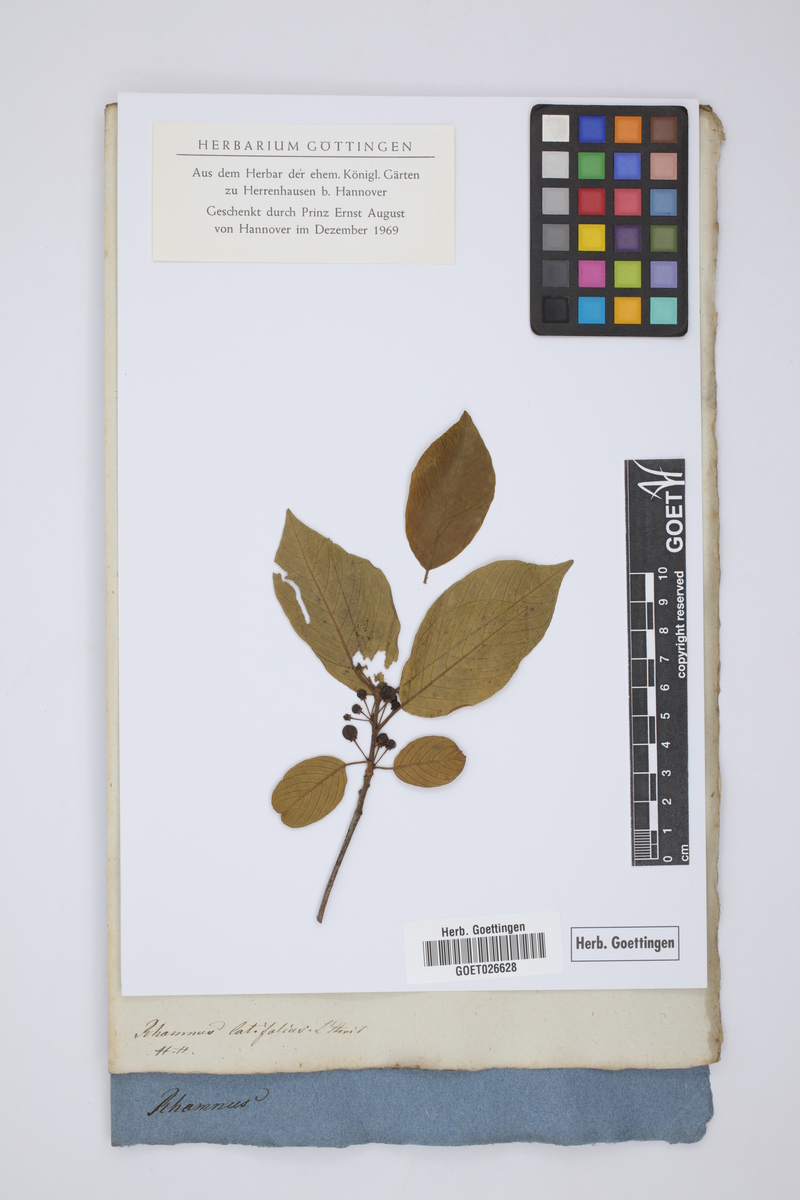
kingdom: Plantae
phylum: Tracheophyta
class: Magnoliopsida
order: Rosales
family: Rhamnaceae
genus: Frangula
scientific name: Frangula azorica
